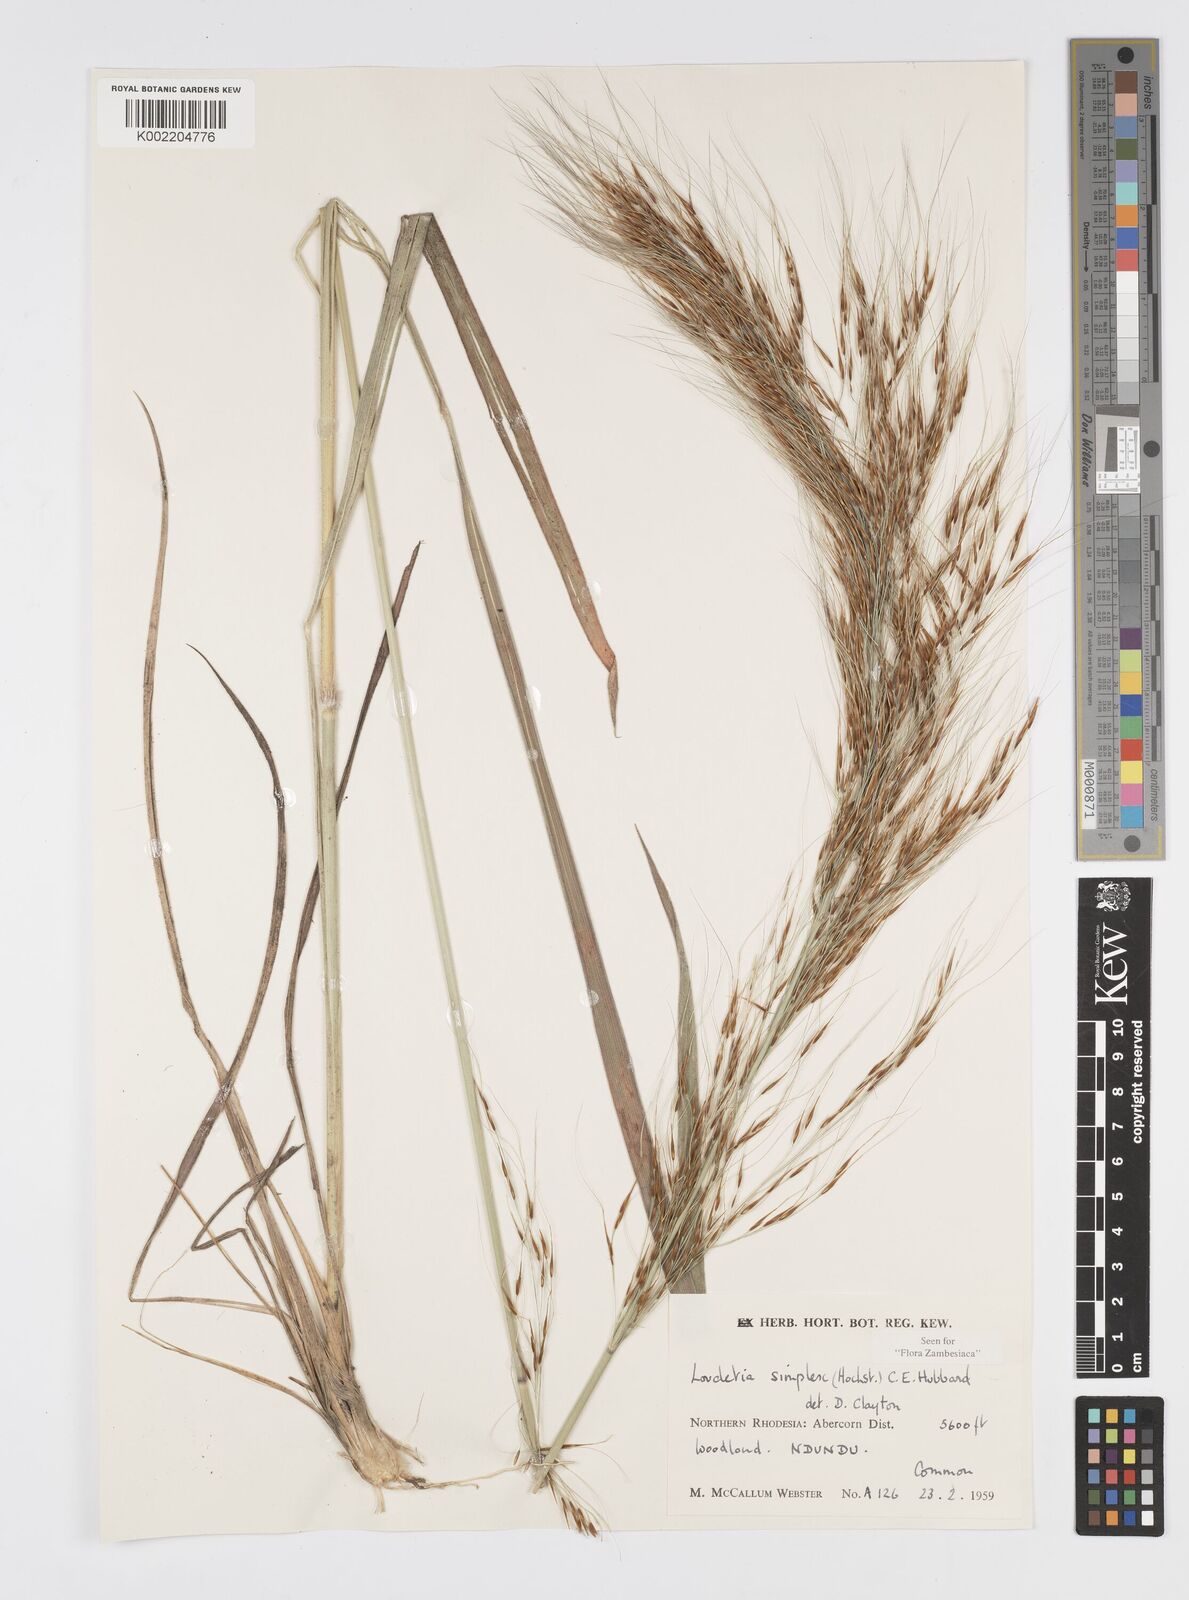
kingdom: Plantae
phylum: Tracheophyta
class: Liliopsida
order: Poales
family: Poaceae
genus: Loudetia
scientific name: Loudetia simplex
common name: Common russet grass
